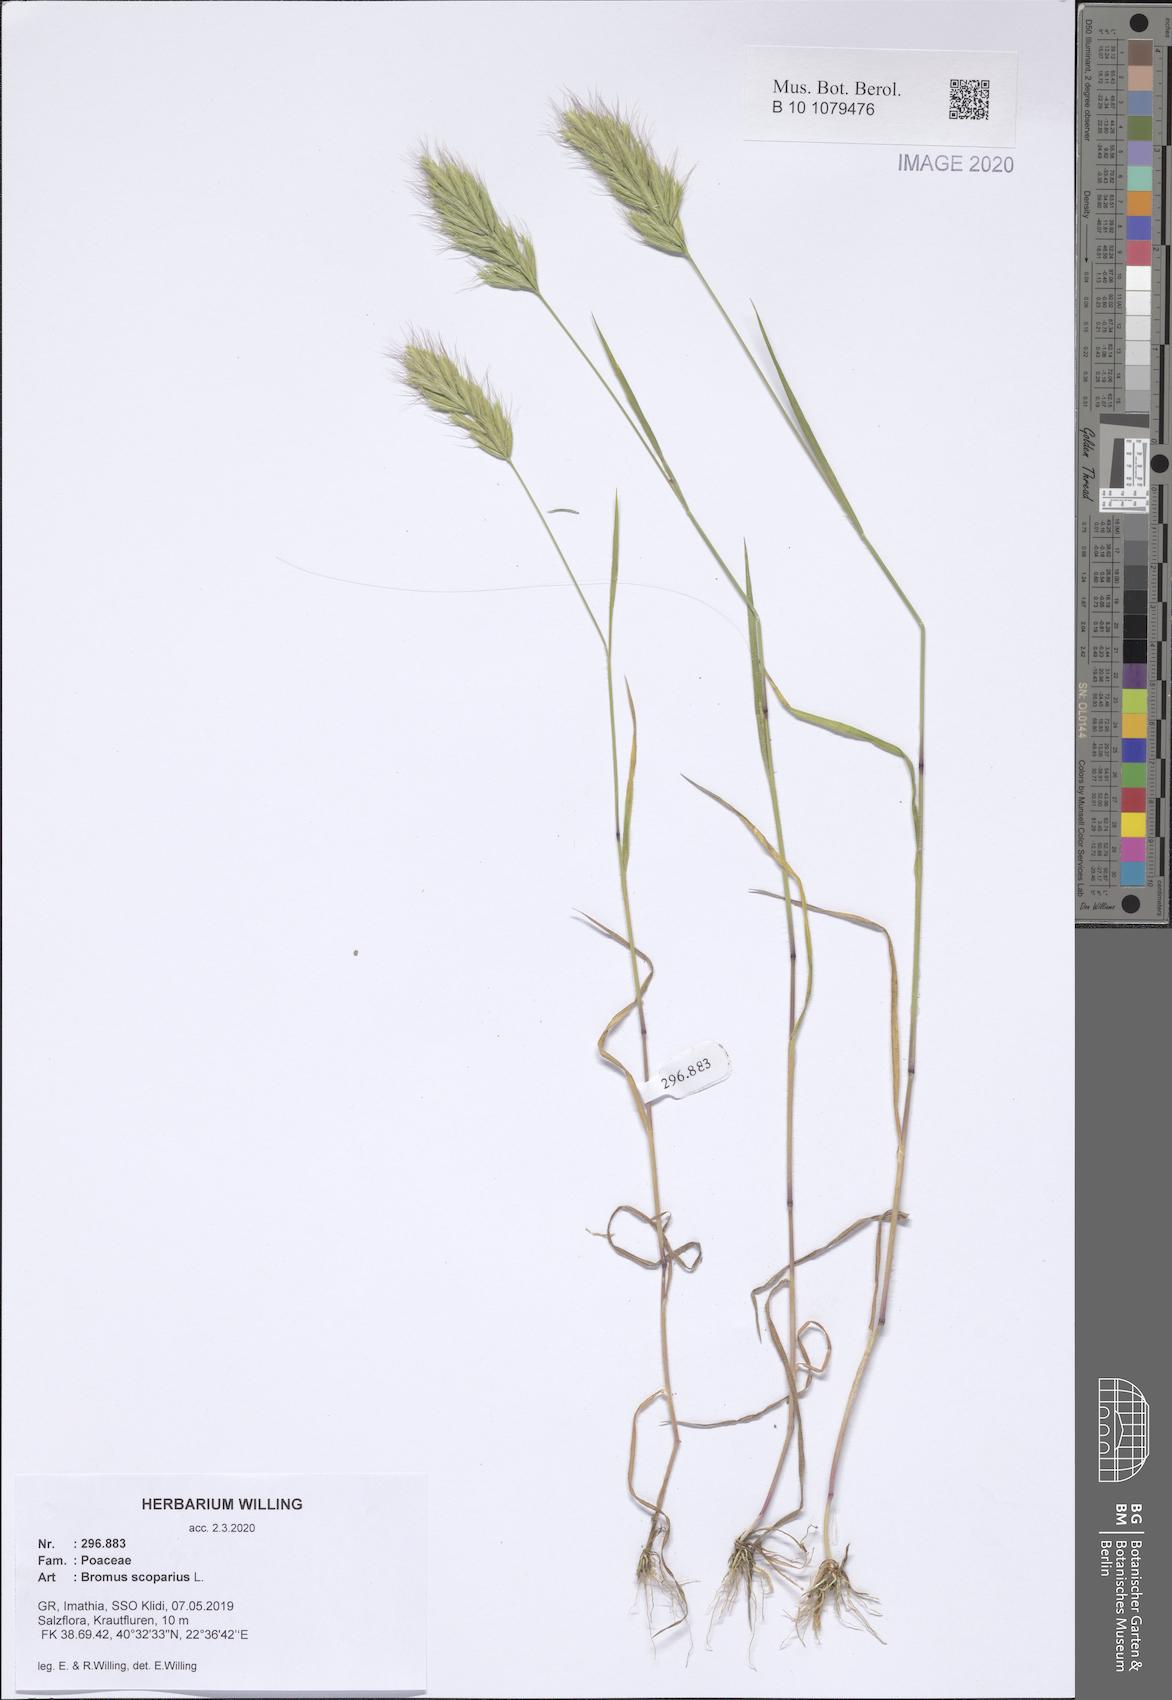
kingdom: Plantae
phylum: Tracheophyta
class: Liliopsida
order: Poales
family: Poaceae
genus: Bromus
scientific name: Bromus scoparius
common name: Broom brome
